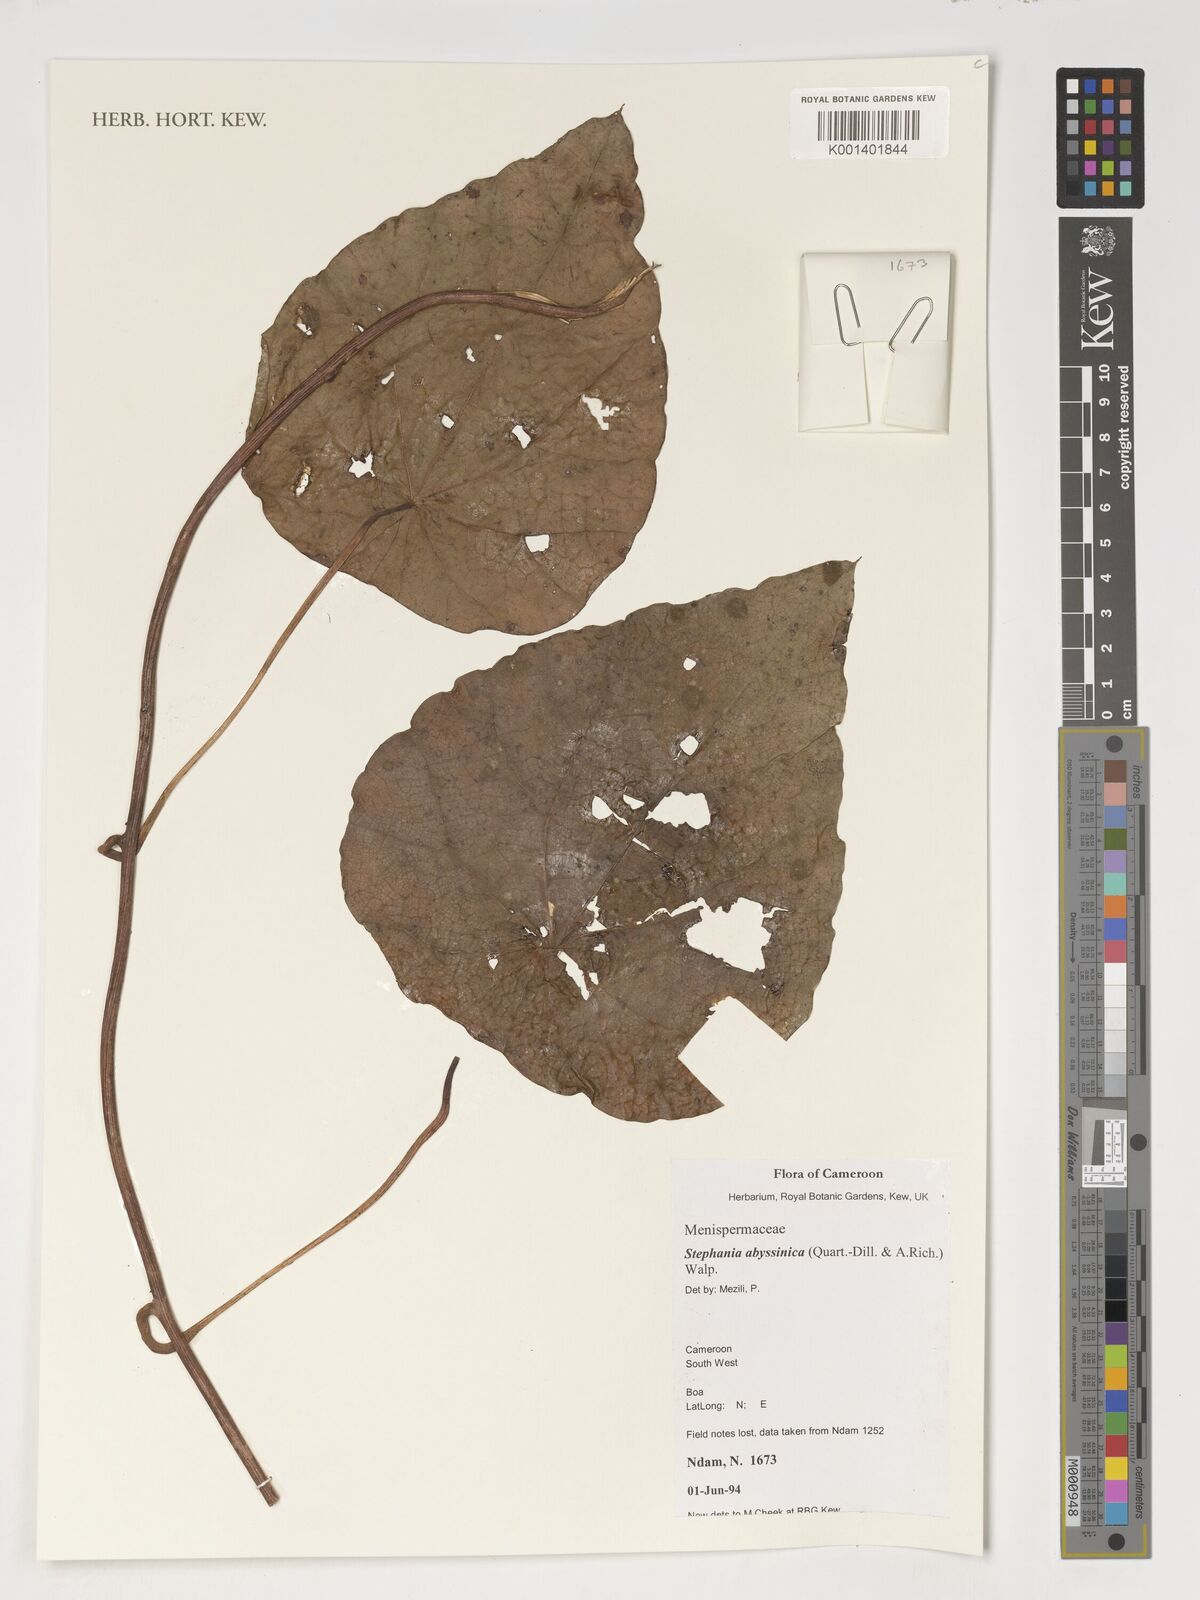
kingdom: Plantae
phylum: Tracheophyta
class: Magnoliopsida
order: Ranunculales
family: Menispermaceae
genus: Stephania
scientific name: Stephania abyssinica
